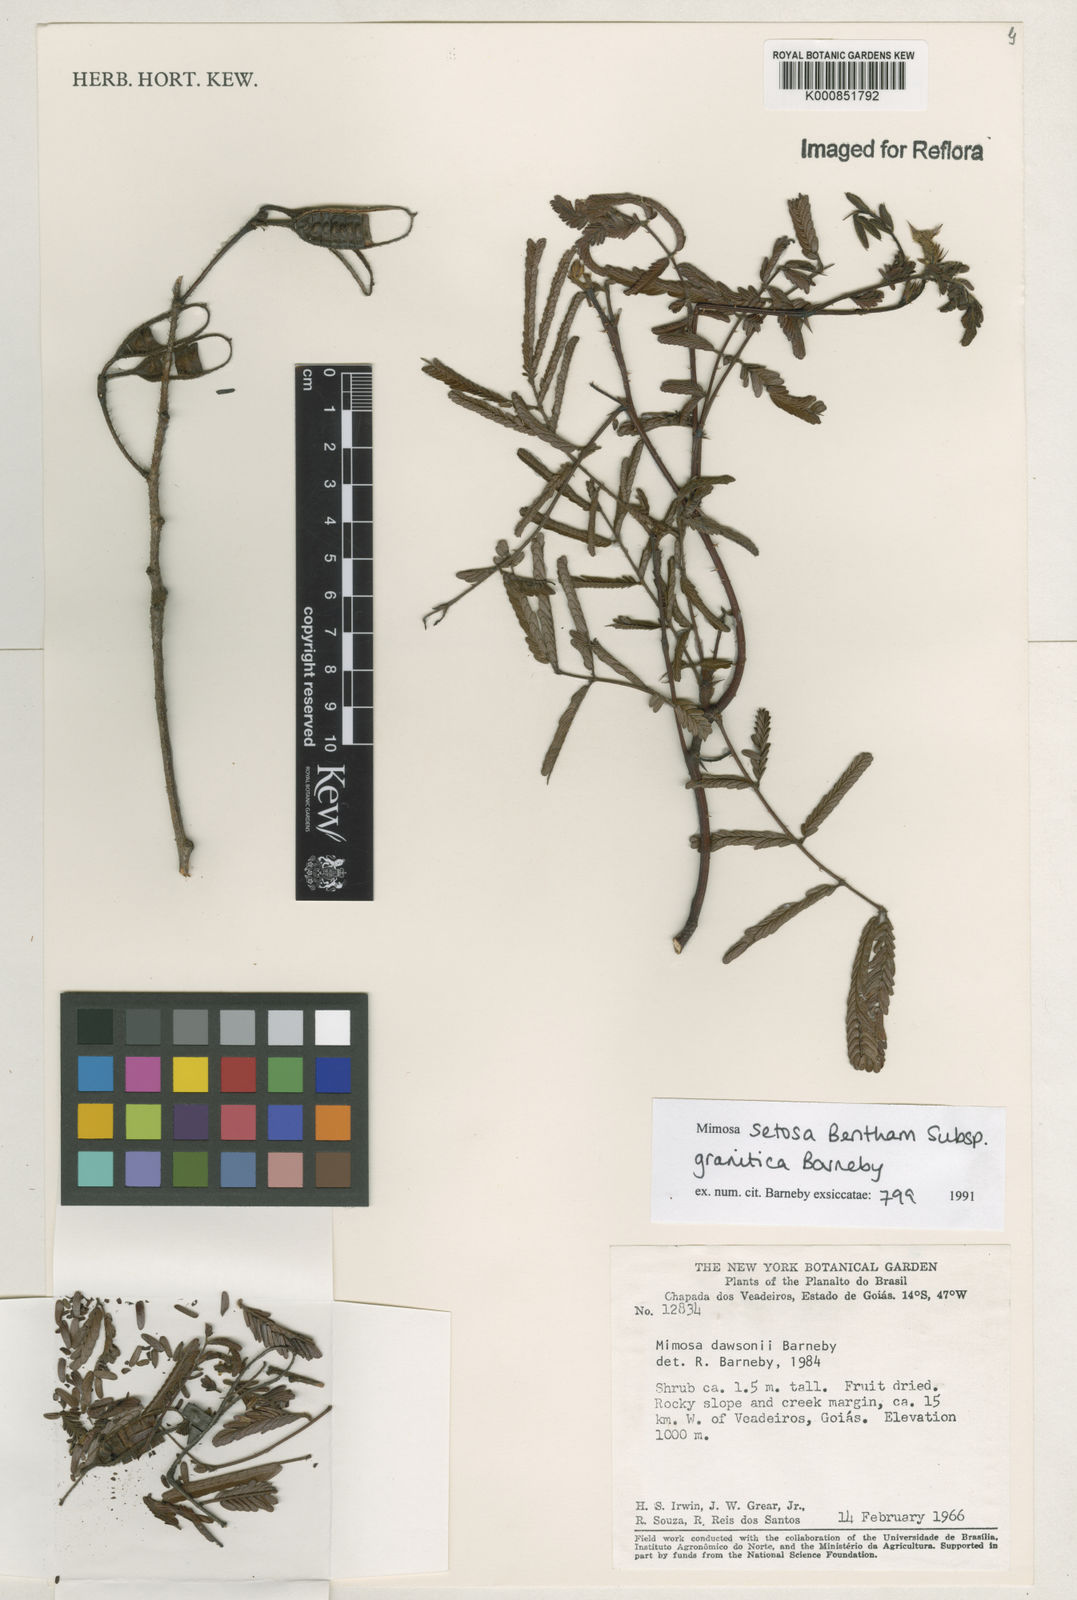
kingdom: Plantae
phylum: Tracheophyta
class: Magnoliopsida
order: Fabales
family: Fabaceae
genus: Mimosa
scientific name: Mimosa granitica
